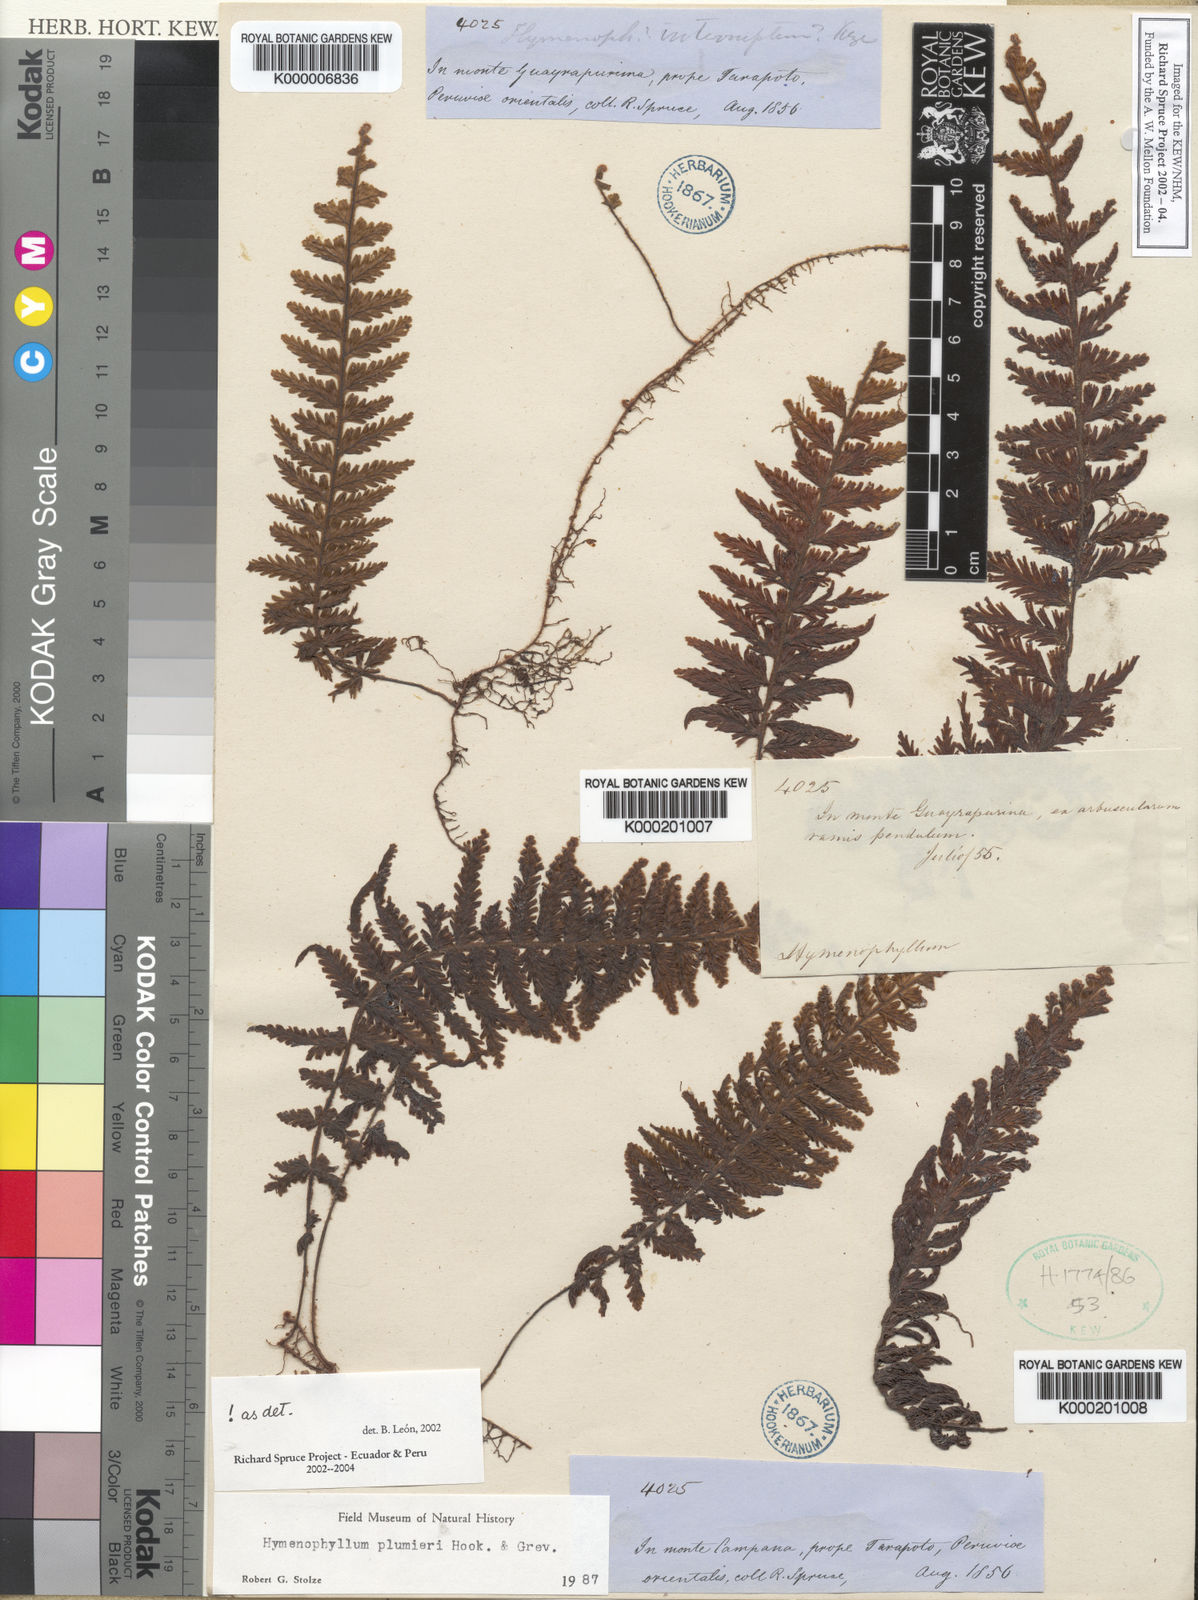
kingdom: Plantae
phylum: Tracheophyta
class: Polypodiopsida
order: Hymenophyllales
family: Hymenophyllaceae
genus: Hymenophyllum
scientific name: Hymenophyllum
